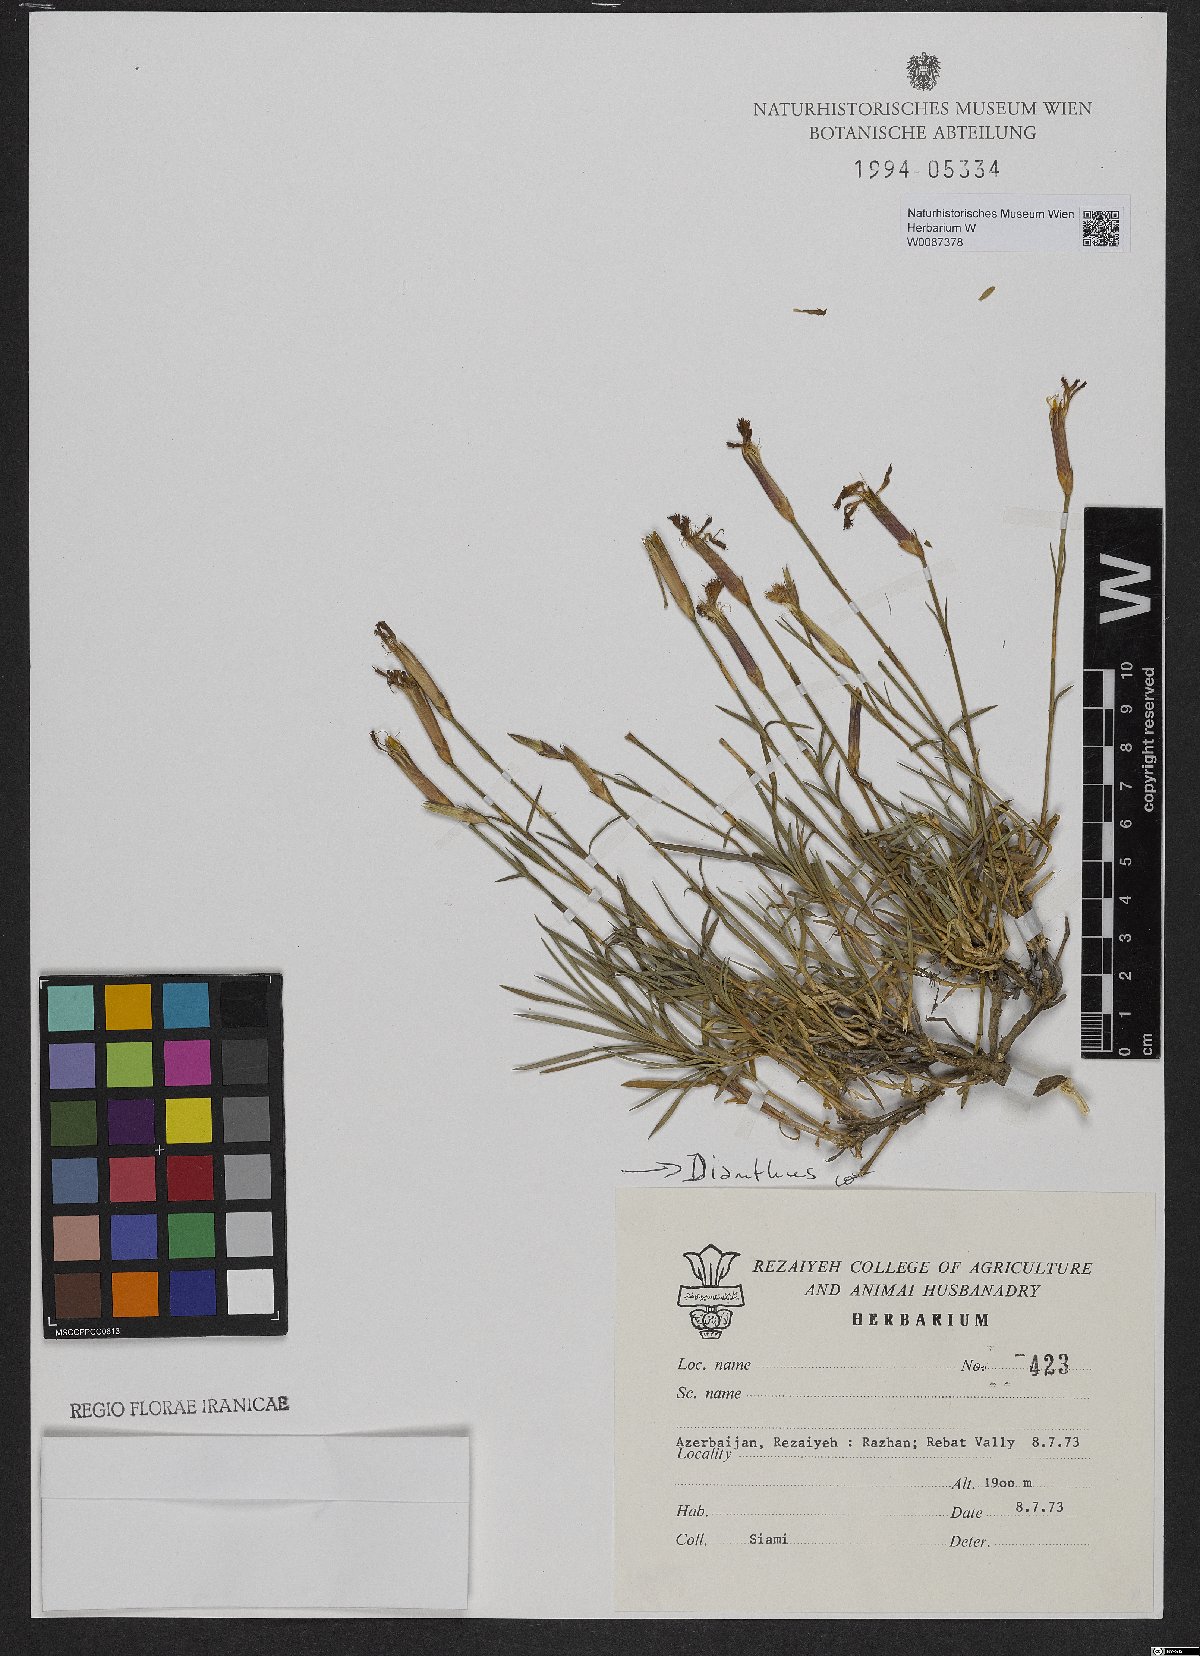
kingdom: Plantae
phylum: Tracheophyta
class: Magnoliopsida
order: Caryophyllales
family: Caryophyllaceae
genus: Dianthus
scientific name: Dianthus
